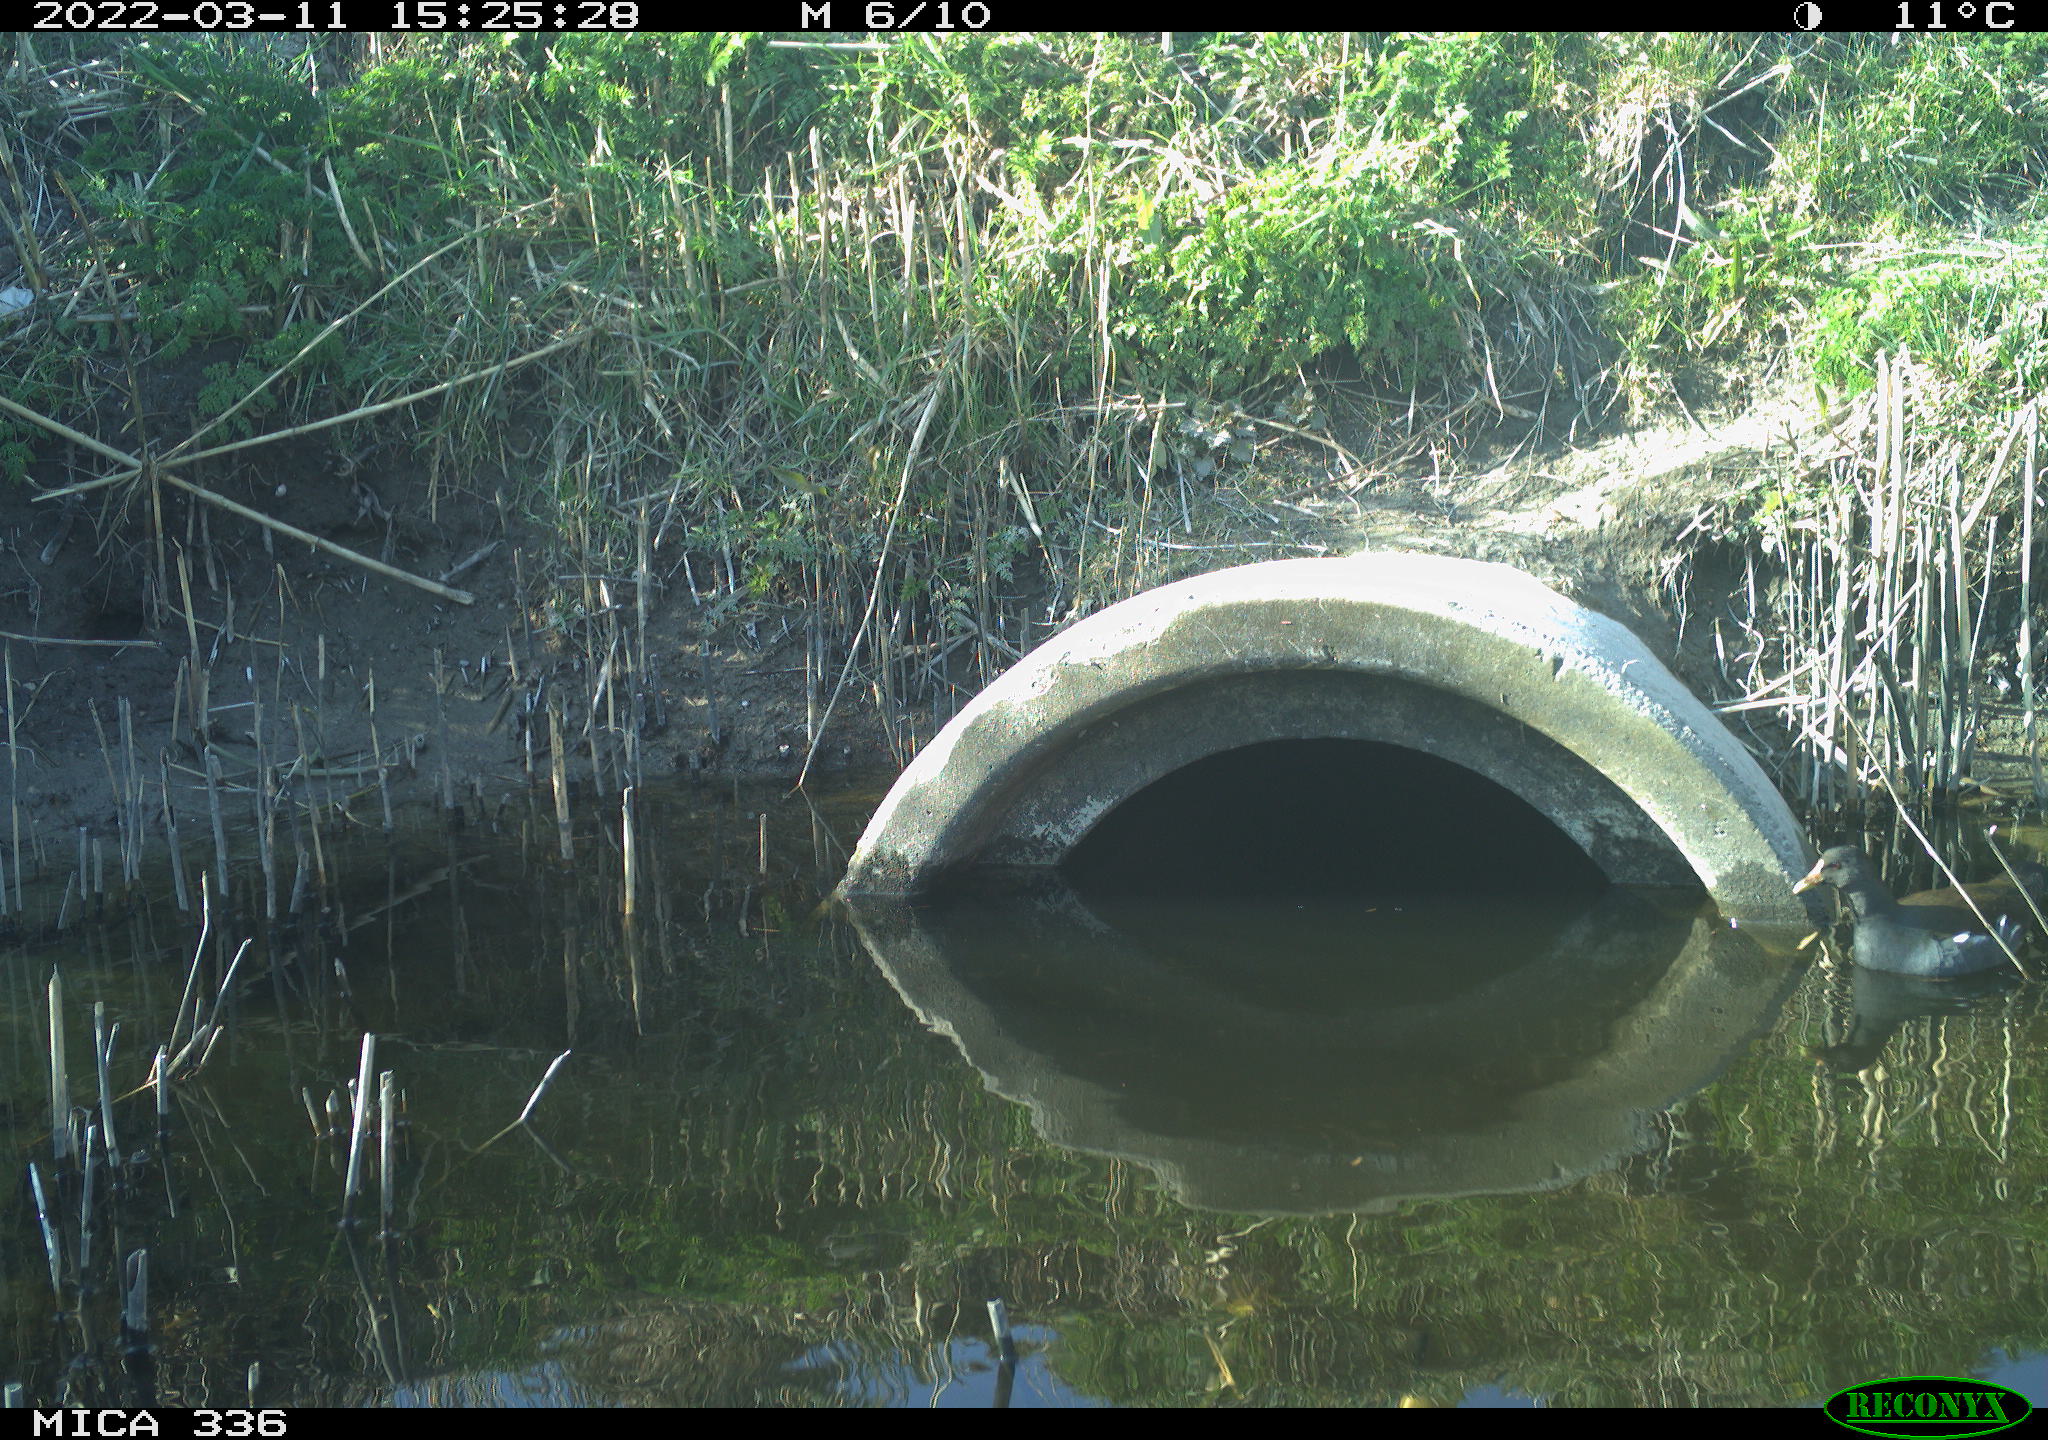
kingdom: Animalia
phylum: Chordata
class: Aves
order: Gruiformes
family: Rallidae
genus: Gallinula
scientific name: Gallinula chloropus
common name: Common moorhen
